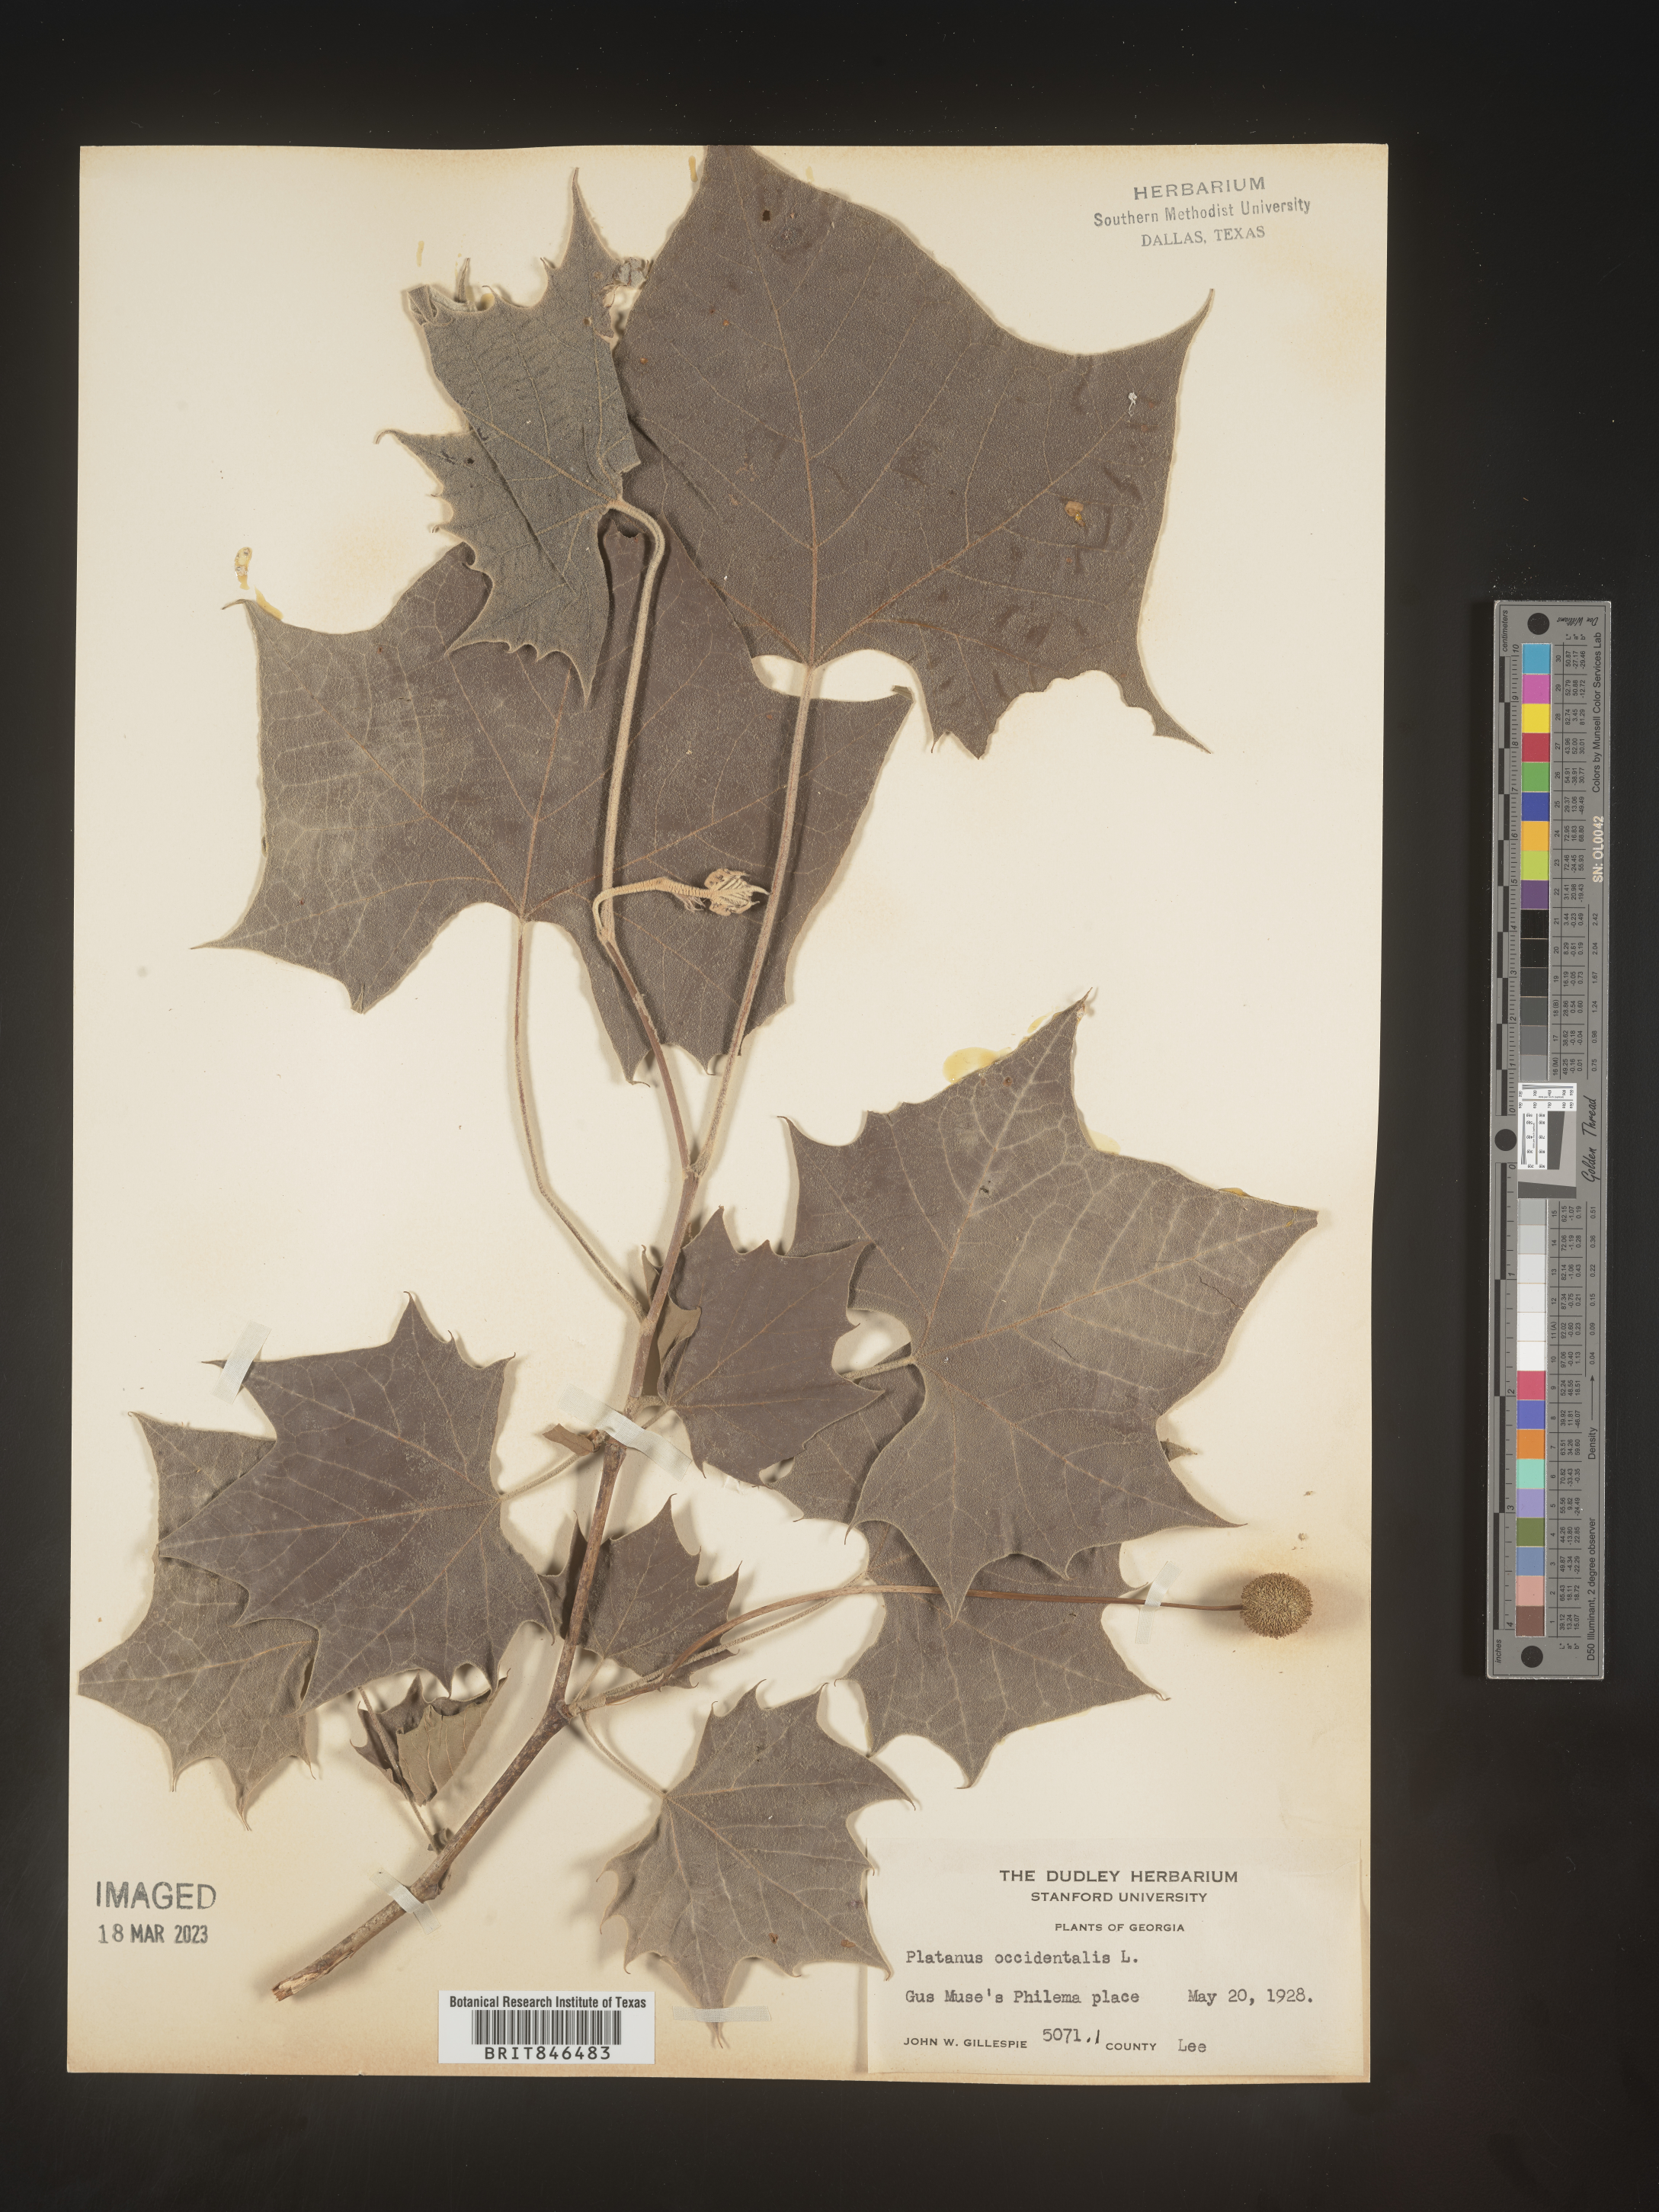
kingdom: Plantae
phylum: Tracheophyta
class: Magnoliopsida
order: Proteales
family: Platanaceae
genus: Platanus
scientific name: Platanus occidentalis
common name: American sycamore
